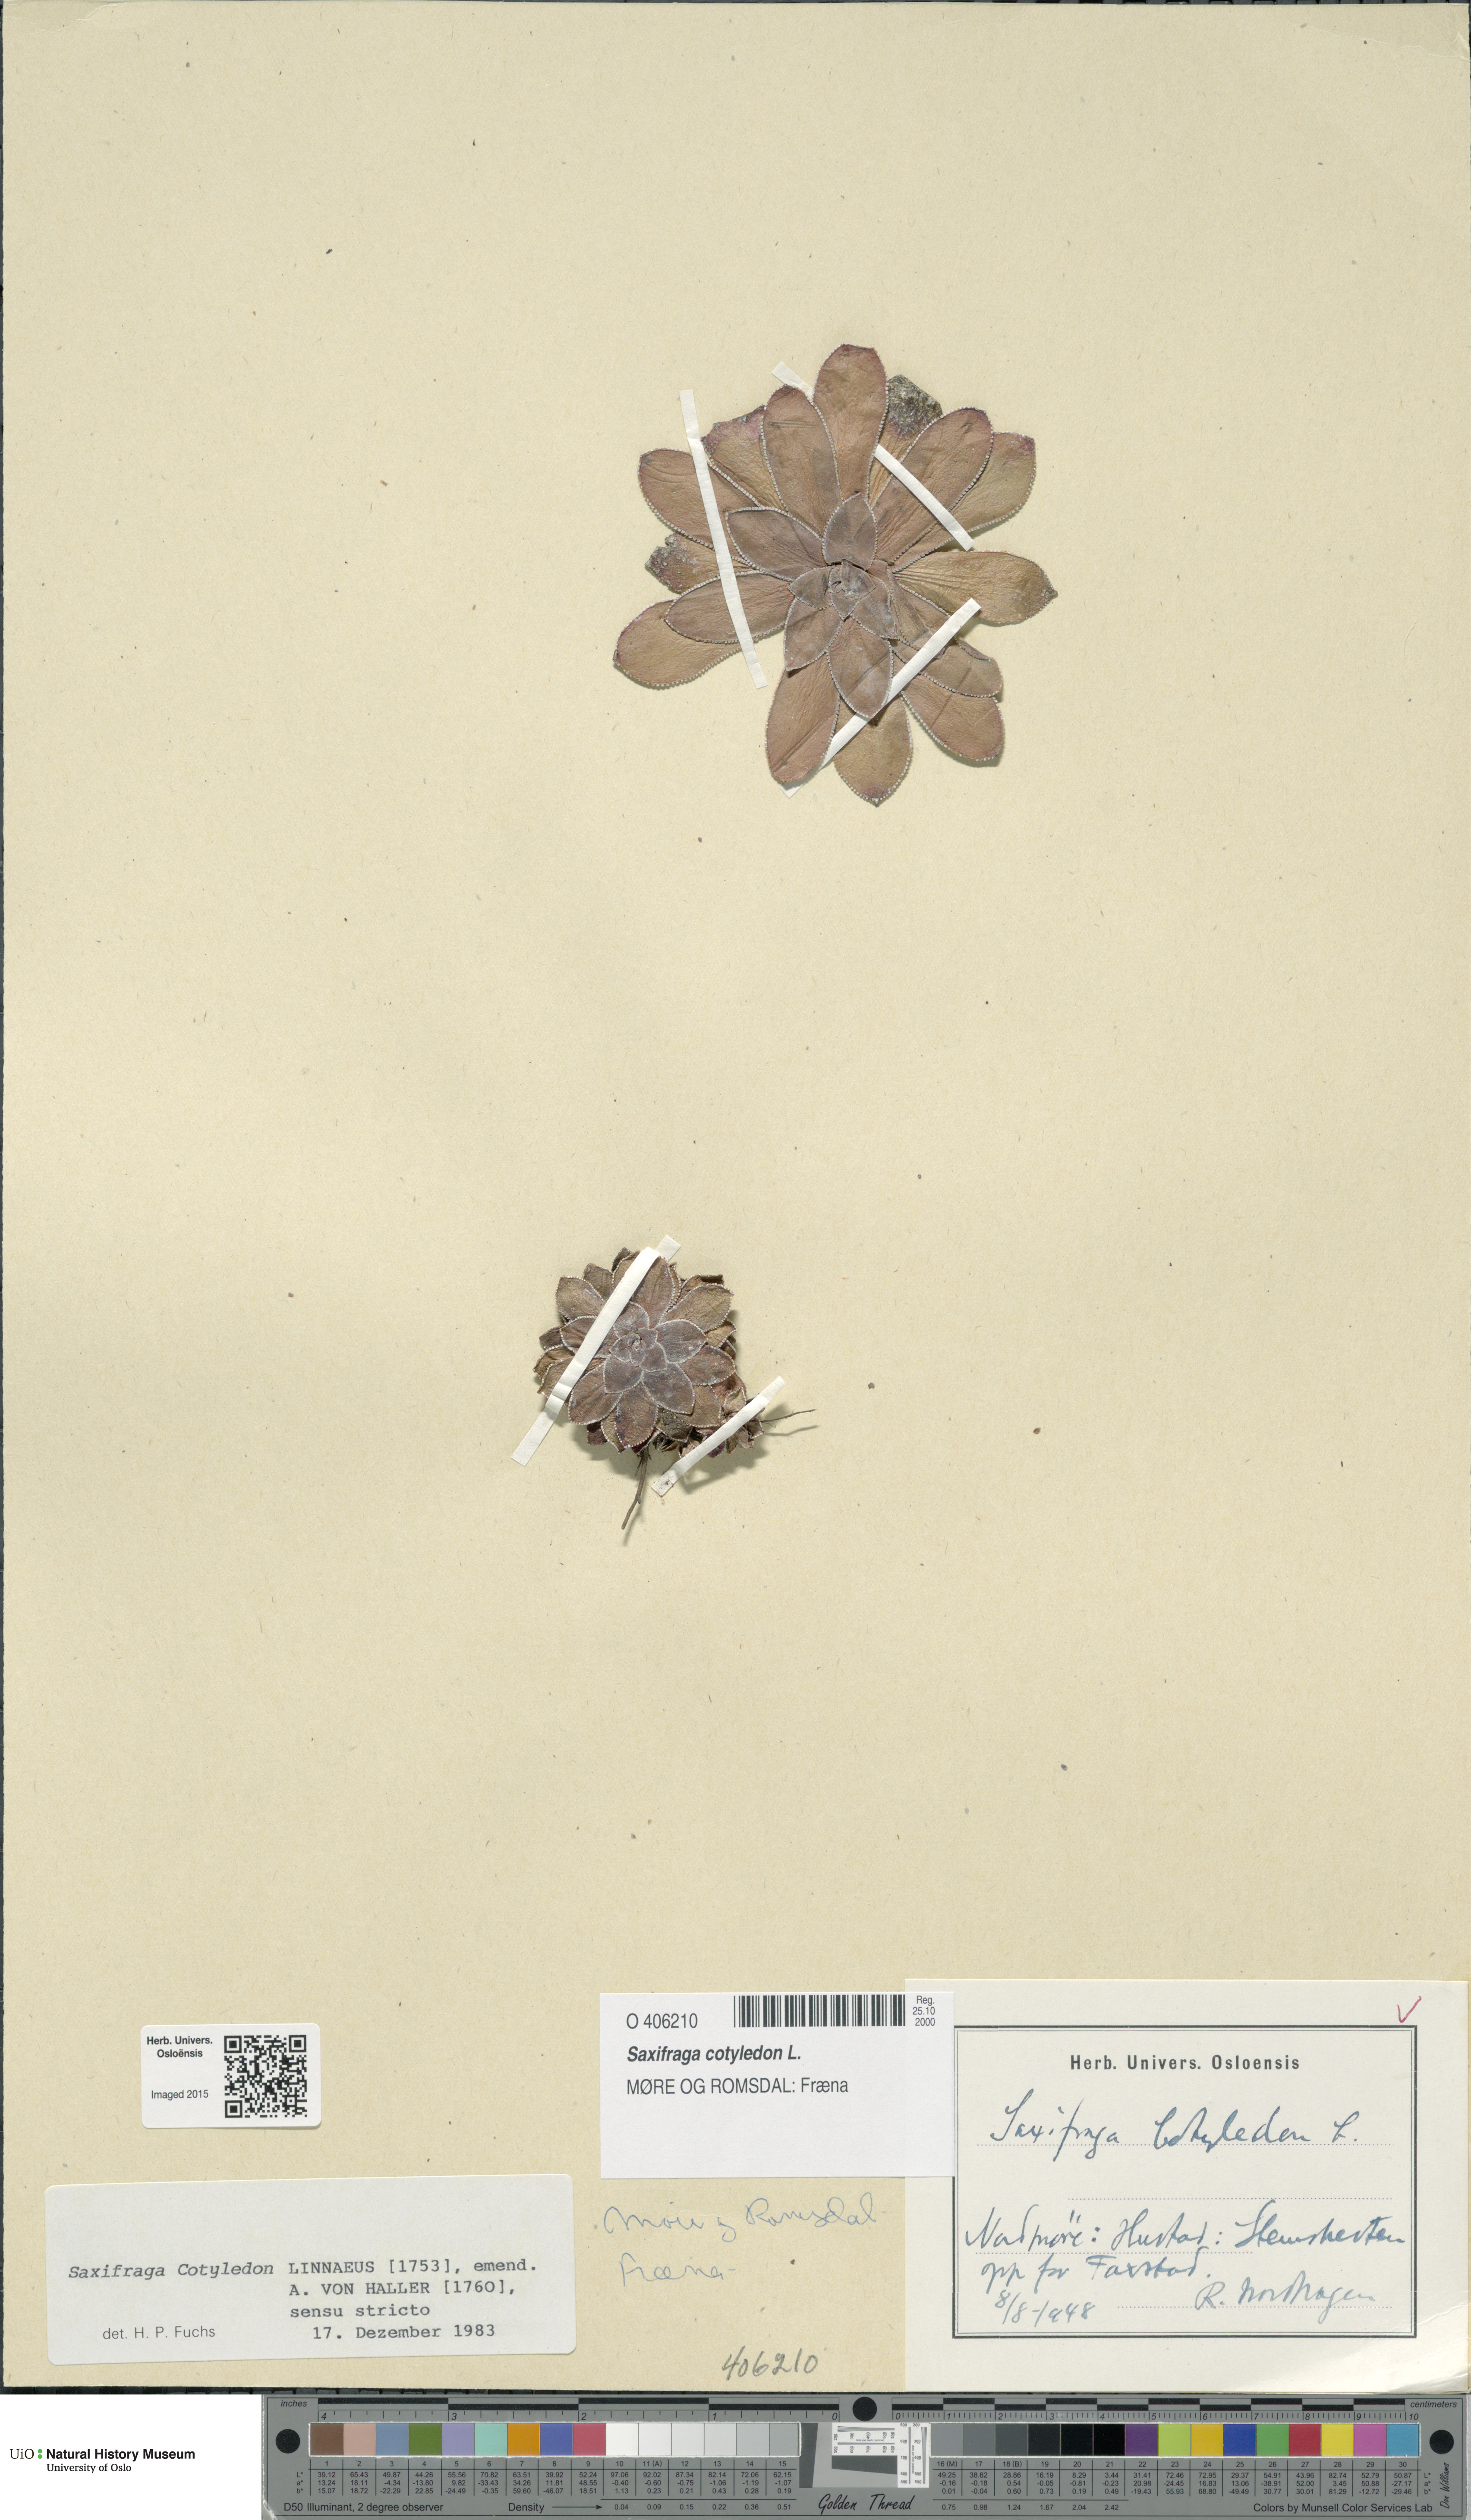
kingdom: Plantae
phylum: Tracheophyta
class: Magnoliopsida
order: Saxifragales
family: Saxifragaceae
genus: Saxifraga
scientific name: Saxifraga cotyledon
